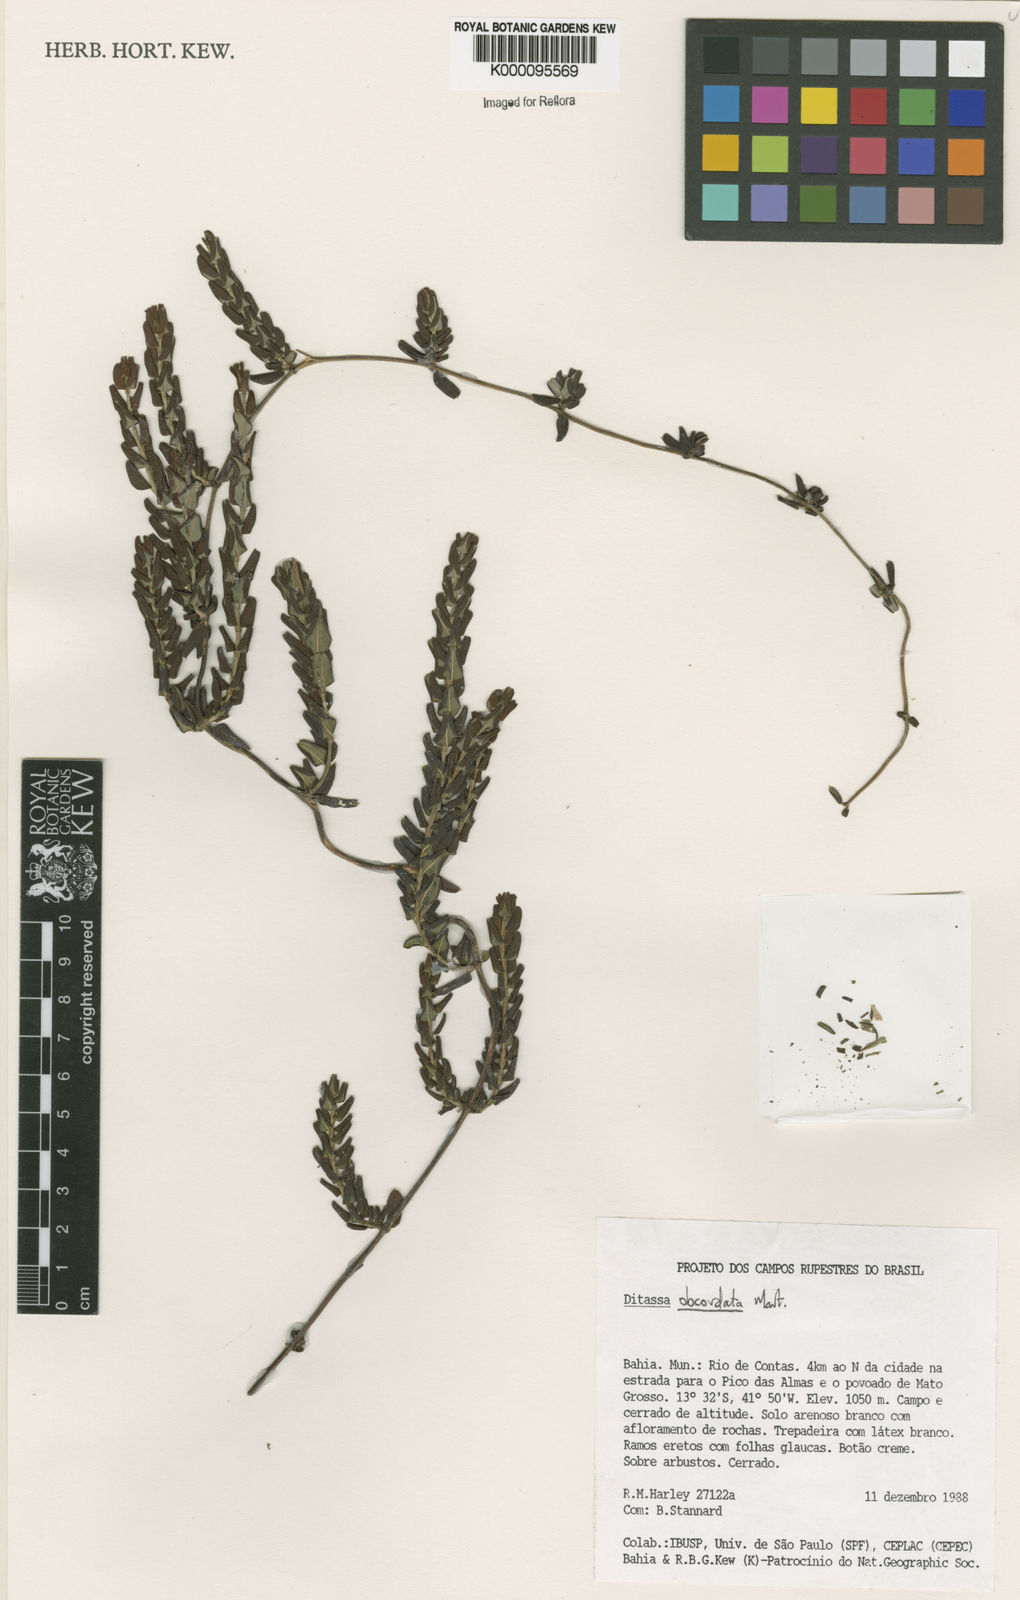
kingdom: Plantae
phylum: Tracheophyta
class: Magnoliopsida
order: Gentianales
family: Apocynaceae
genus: Ditassa
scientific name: Ditassa obcordata
